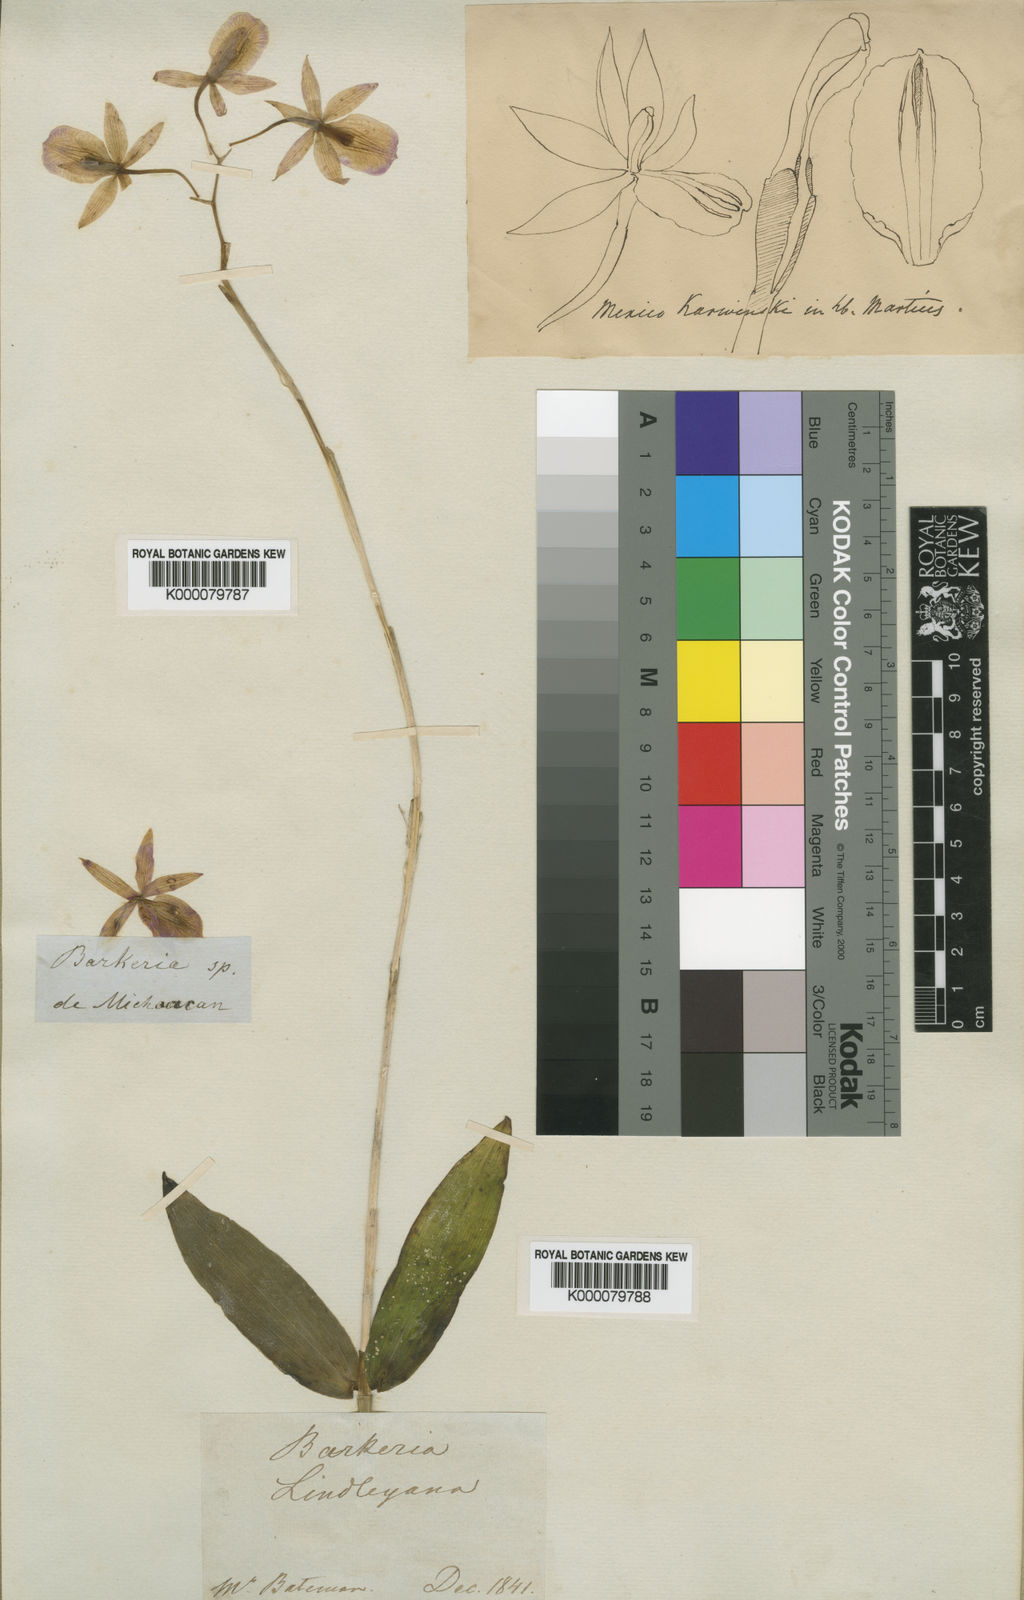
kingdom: Plantae
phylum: Tracheophyta
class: Liliopsida
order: Asparagales
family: Orchidaceae
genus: Barkeria
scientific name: Barkeria lindleyana
